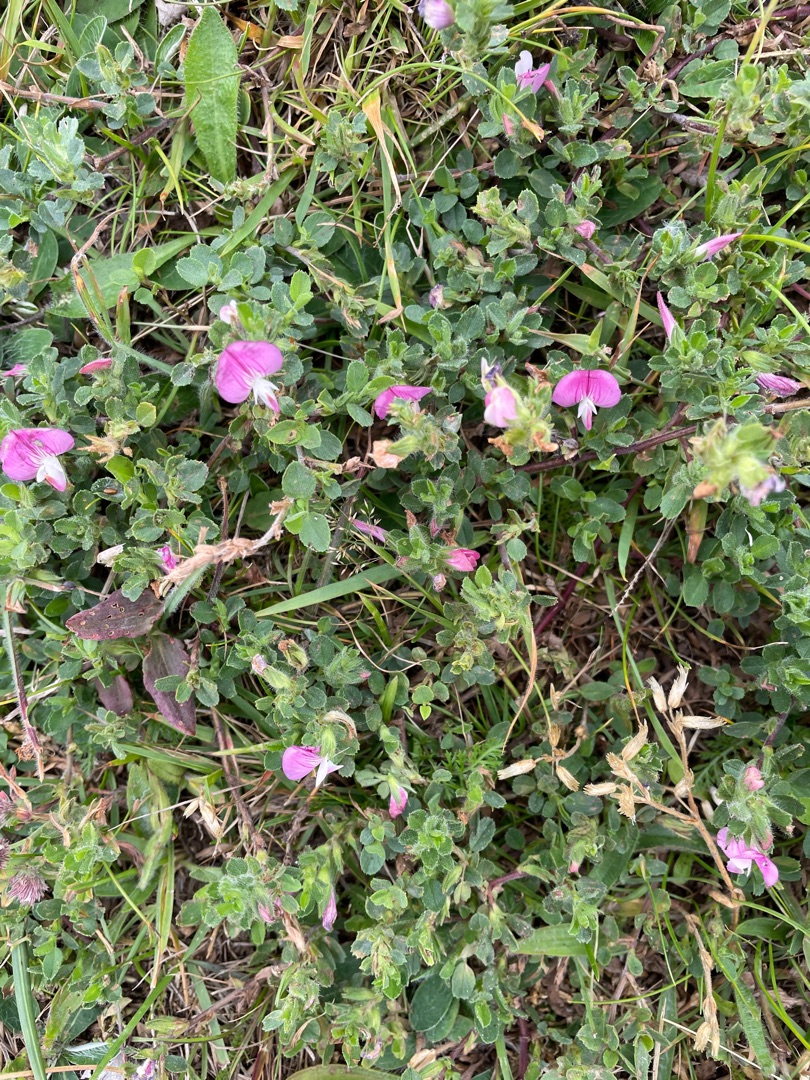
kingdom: Plantae
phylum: Tracheophyta
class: Magnoliopsida
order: Fabales
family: Fabaceae
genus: Ononis
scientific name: Ononis spinosa
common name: Mark-krageklo
